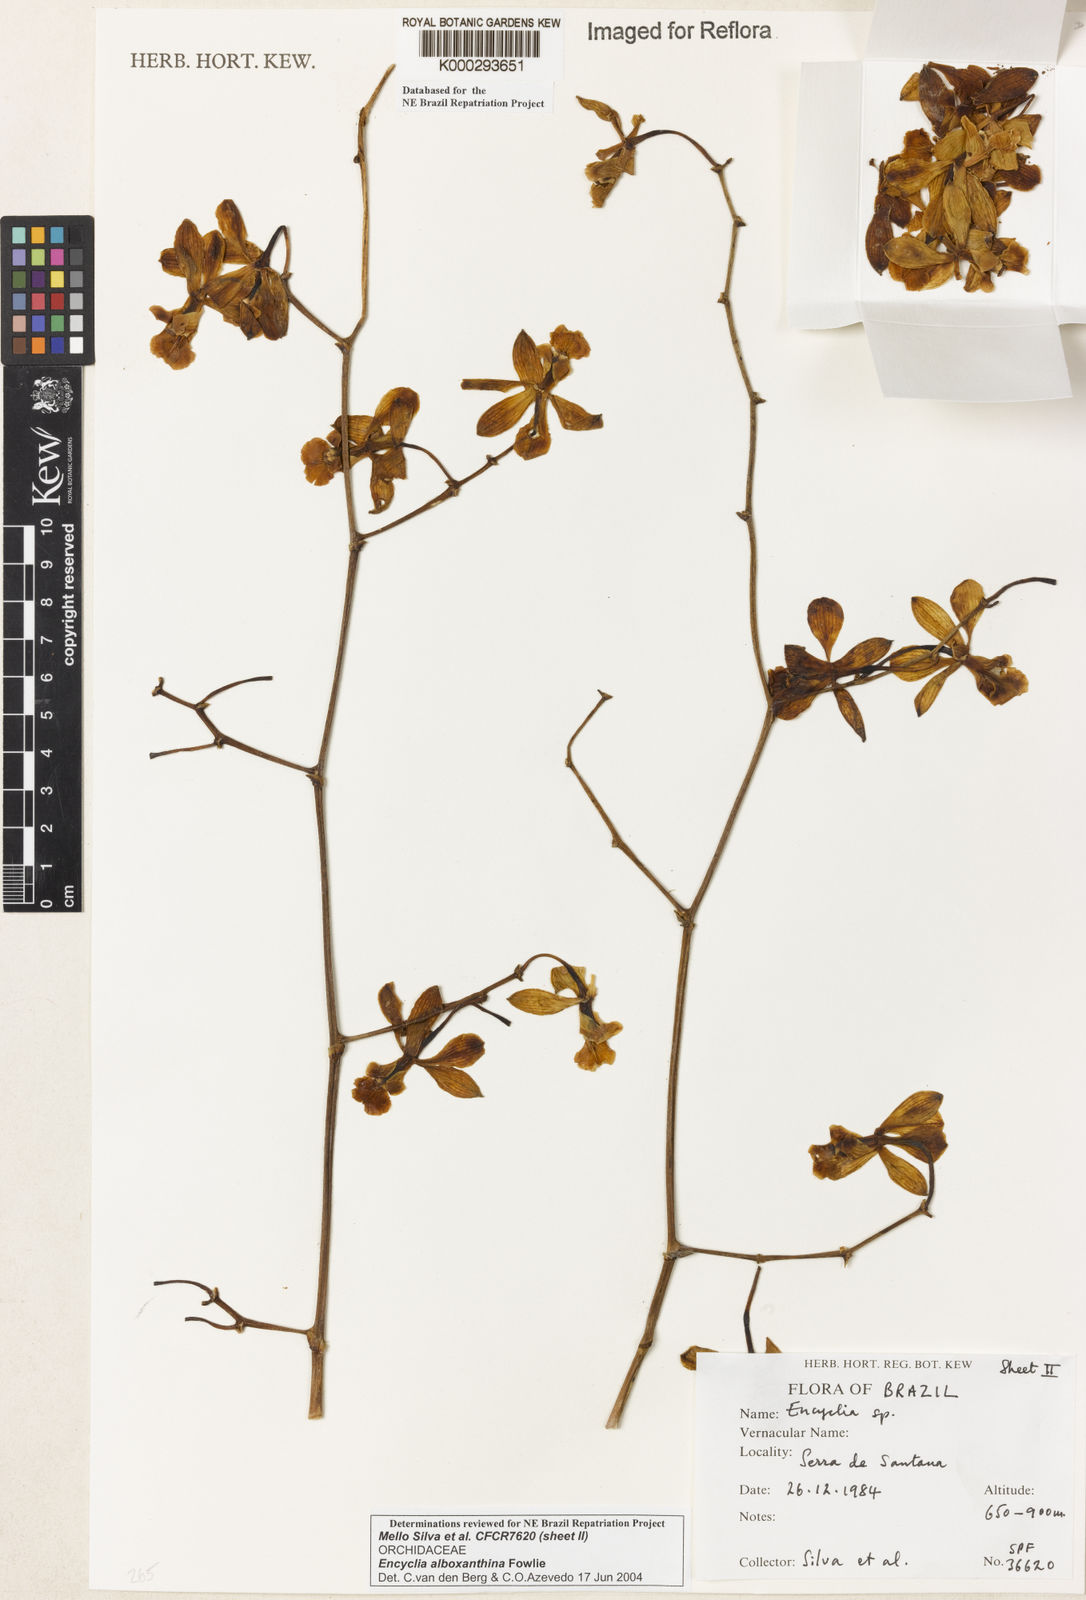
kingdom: Plantae
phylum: Tracheophyta
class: Liliopsida
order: Asparagales
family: Orchidaceae
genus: Encyclia
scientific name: Encyclia alboxanthina
